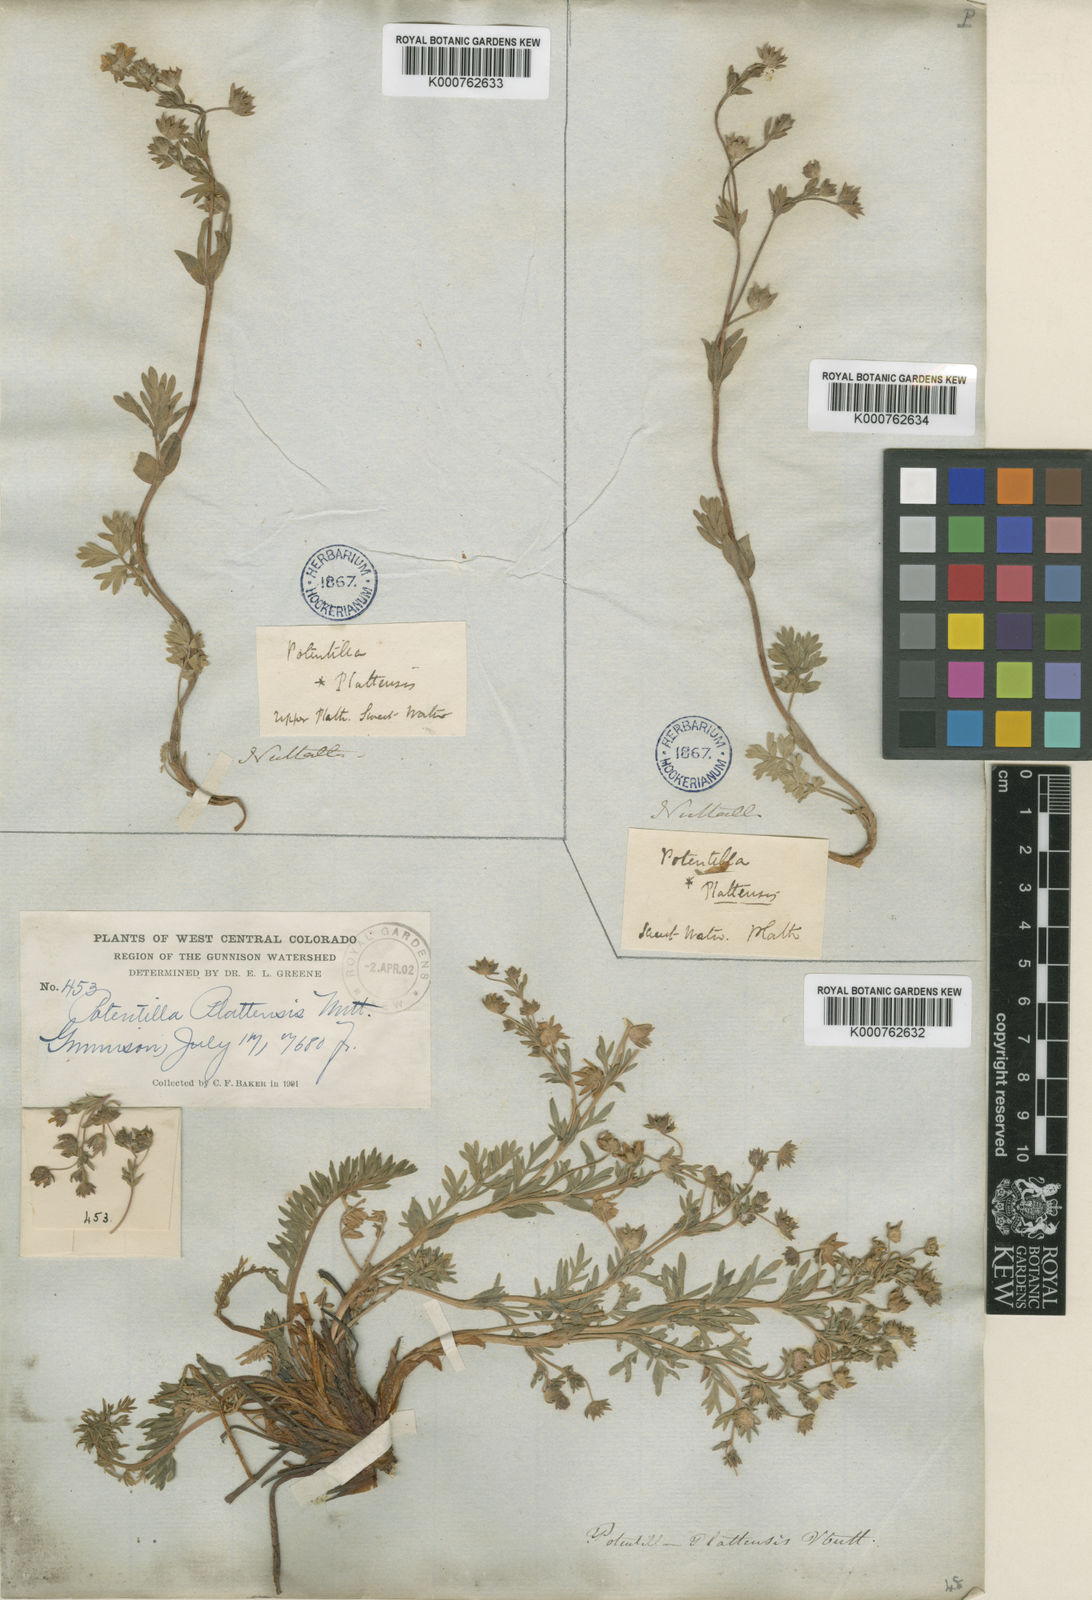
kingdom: Plantae
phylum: Tracheophyta
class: Magnoliopsida
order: Rosales
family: Rosaceae
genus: Potentilla
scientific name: Potentilla plattensis
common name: Platte river cinquefoil
